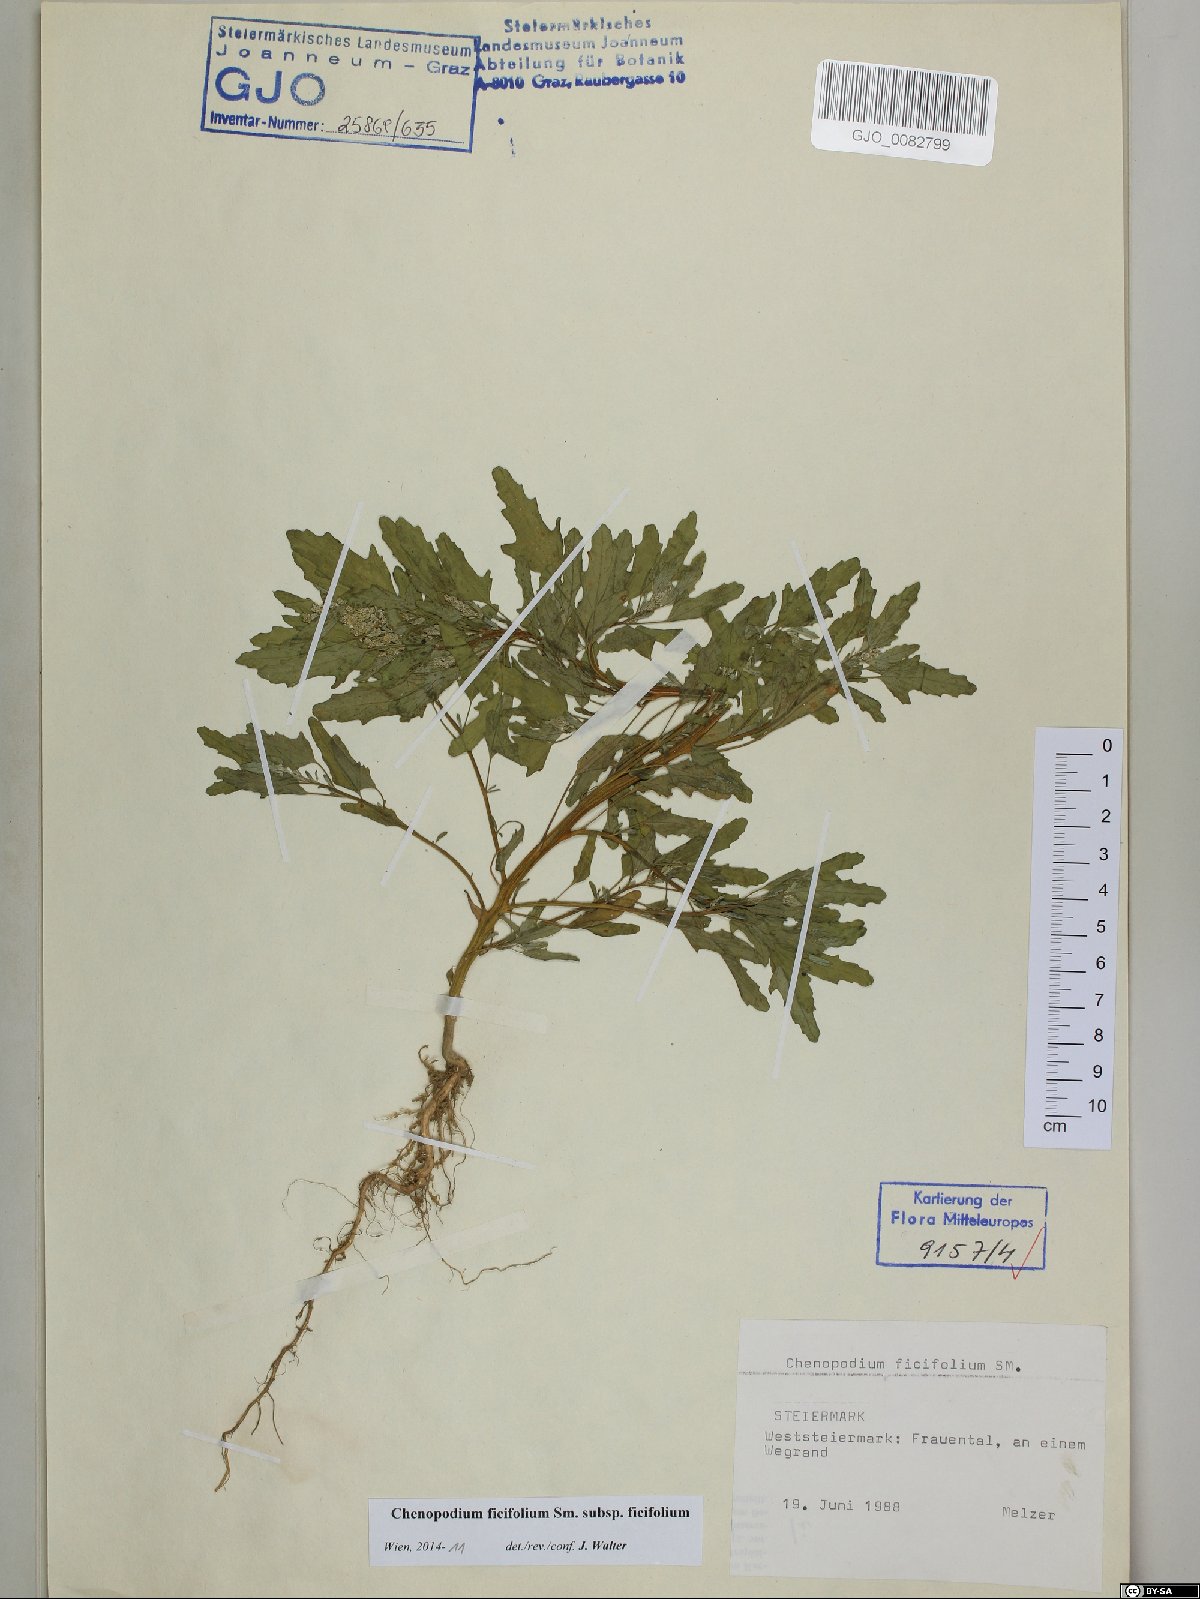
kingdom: Plantae
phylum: Tracheophyta
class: Magnoliopsida
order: Caryophyllales
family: Amaranthaceae
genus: Chenopodium
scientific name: Chenopodium ficifolium
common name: Fig-leaved goosefoot
